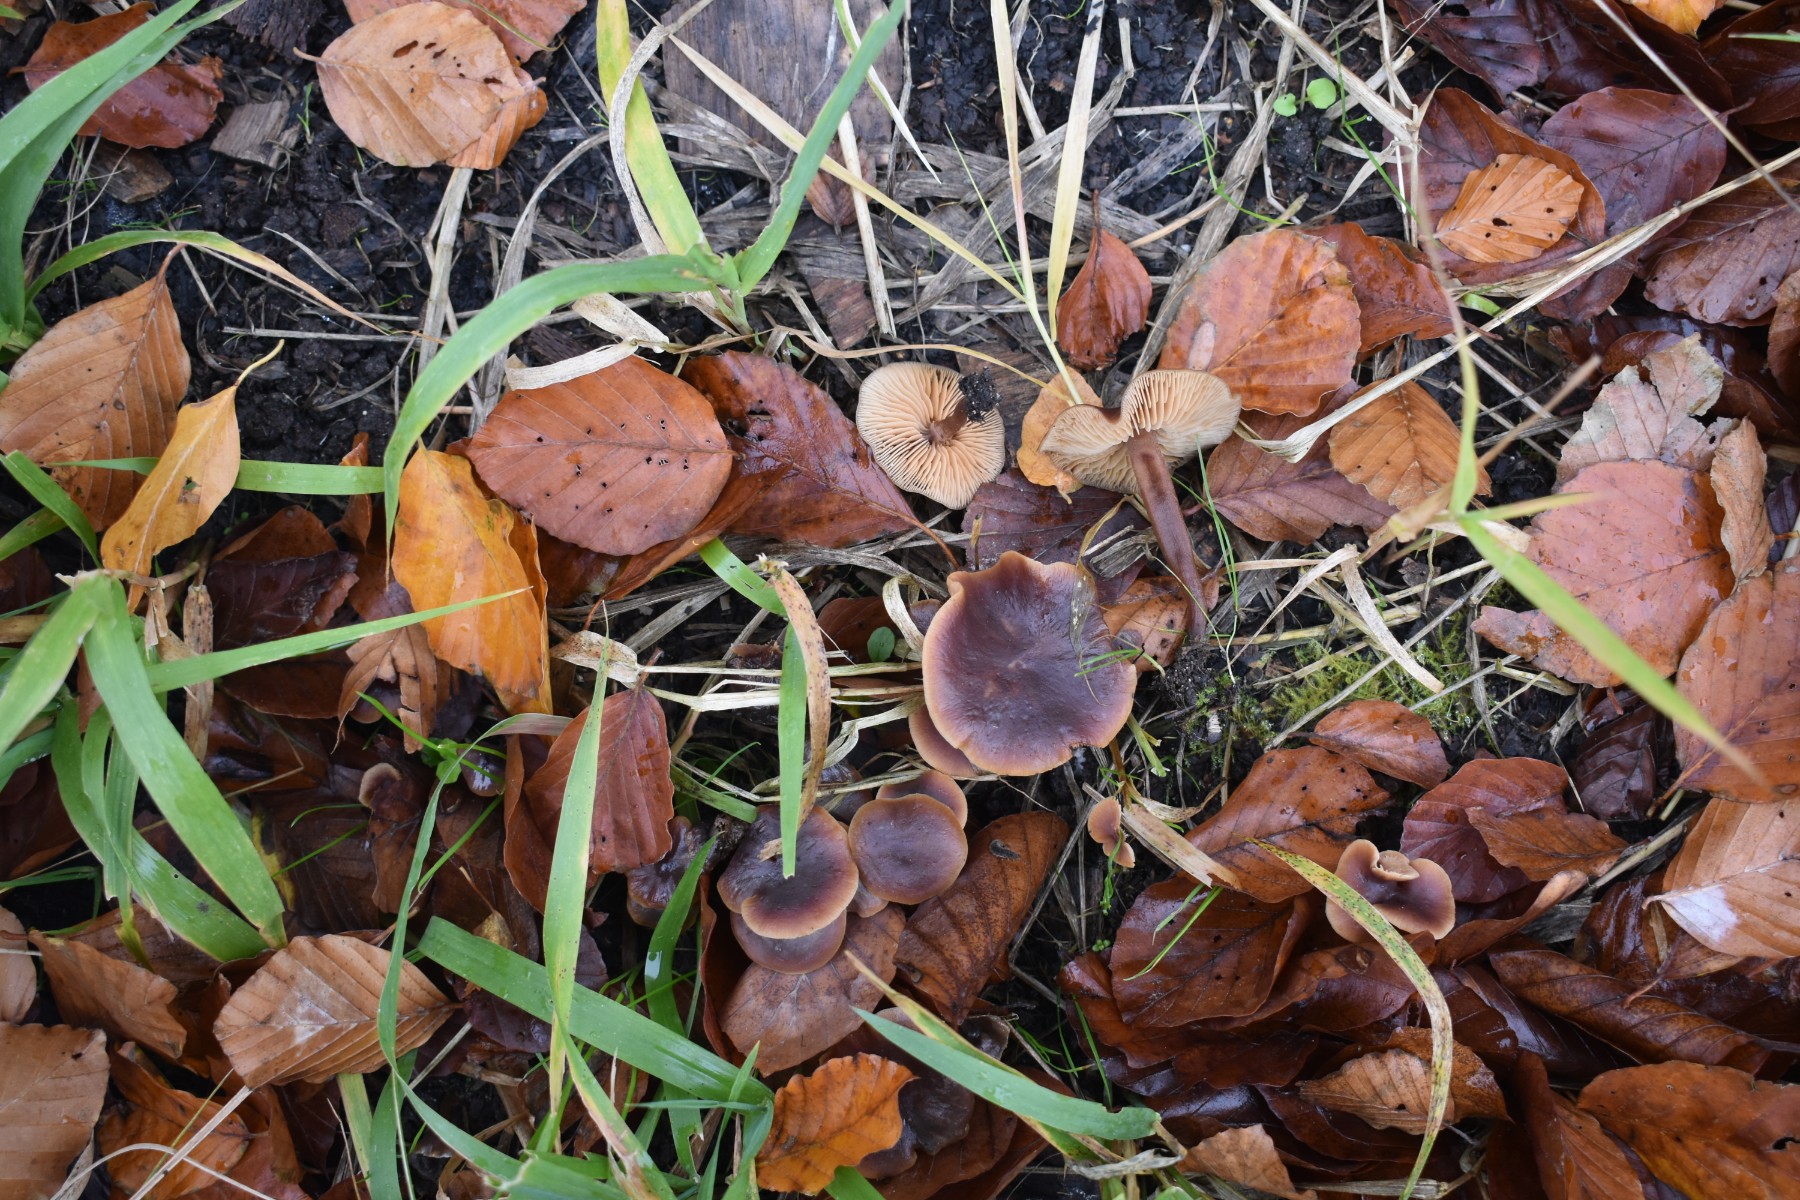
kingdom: Fungi
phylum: Basidiomycota
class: Agaricomycetes
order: Agaricales
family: Macrocystidiaceae
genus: Macrocystidia
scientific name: Macrocystidia cucumis
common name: agurkehat
